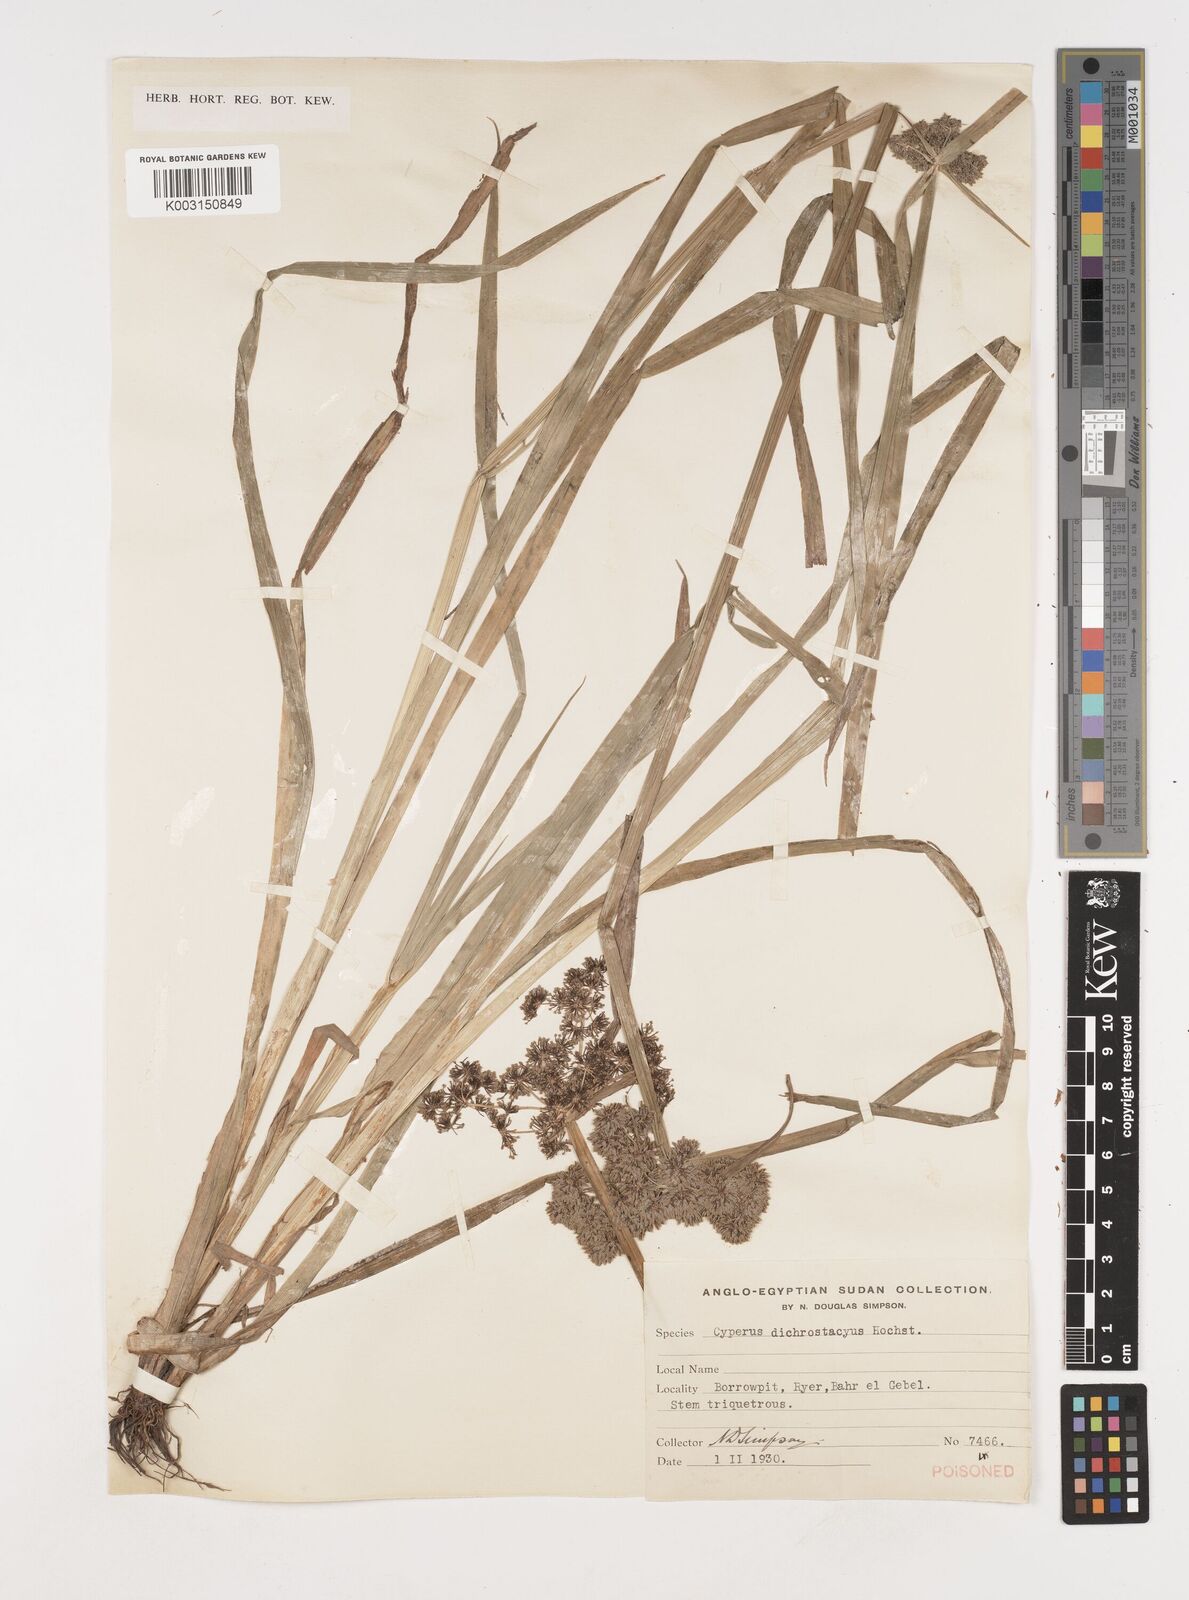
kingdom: Plantae
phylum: Tracheophyta
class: Liliopsida
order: Poales
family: Cyperaceae
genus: Cyperus
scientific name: Cyperus dichrostachyus
